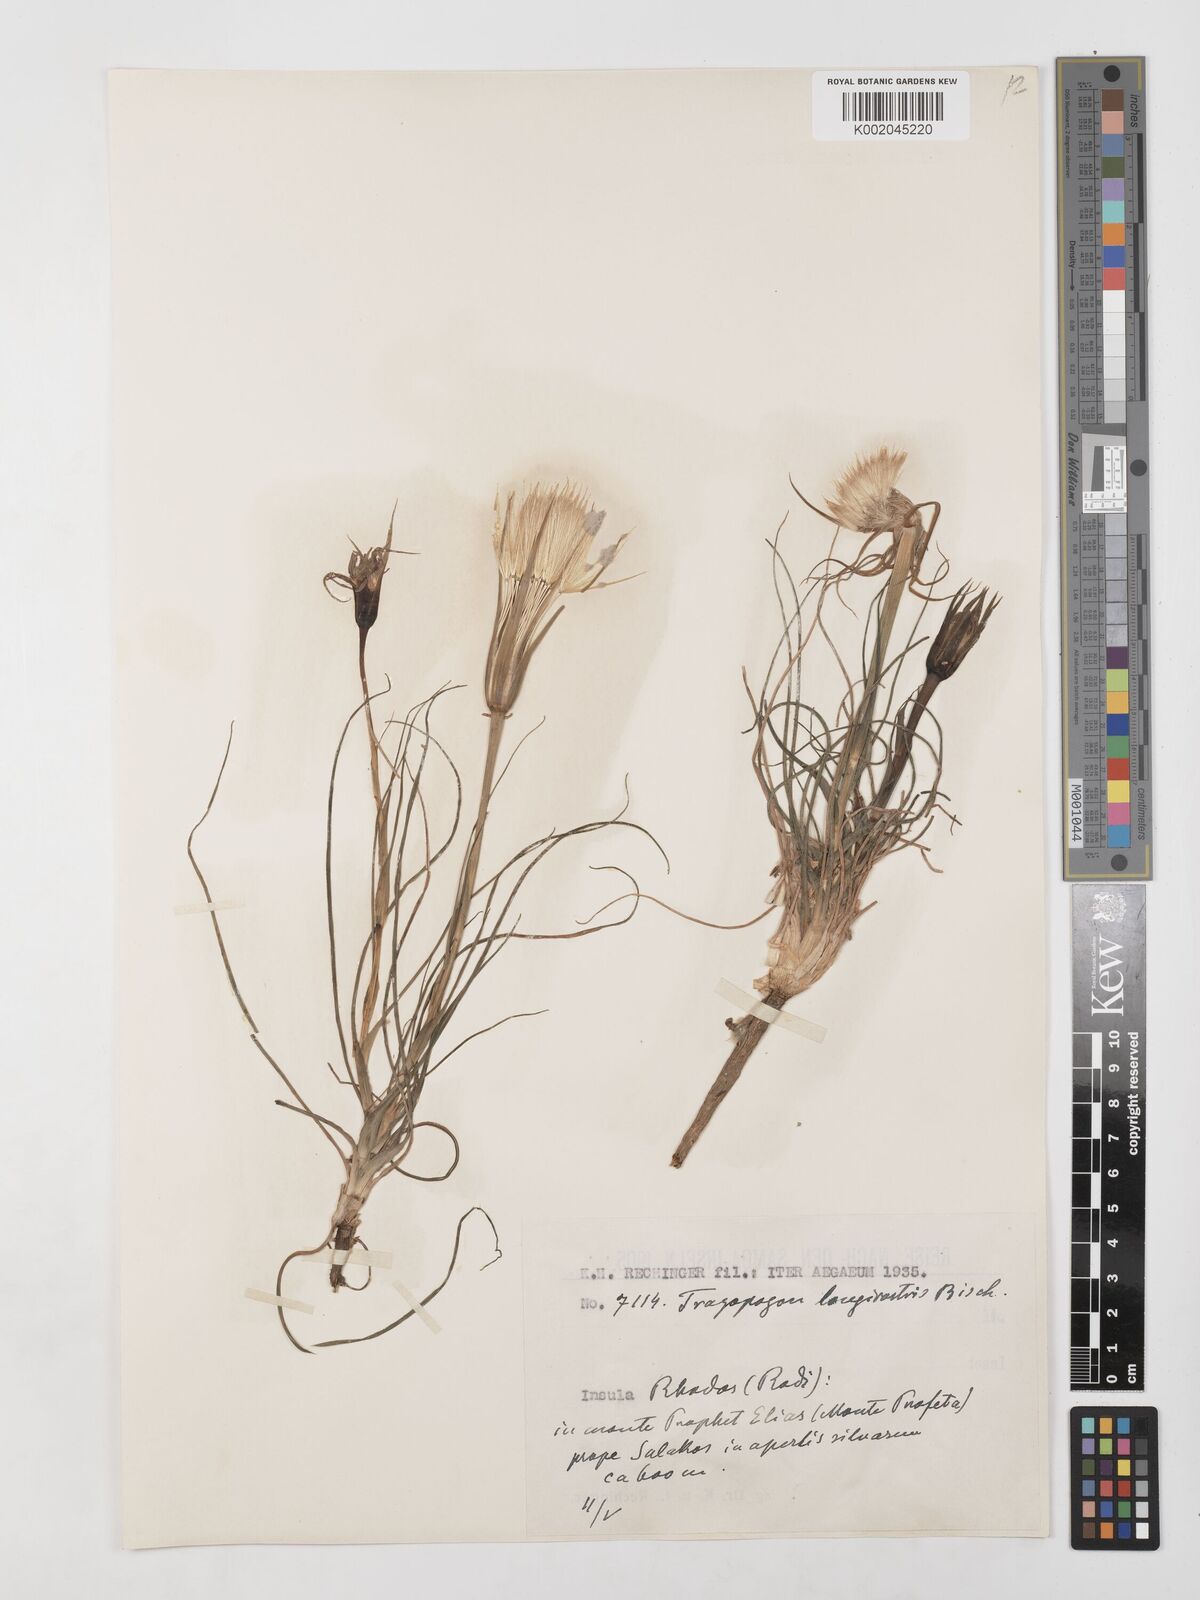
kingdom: Plantae
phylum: Tracheophyta
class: Magnoliopsida
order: Asterales
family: Asteraceae
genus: Tragopogon
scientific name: Tragopogon coelesyriacus
